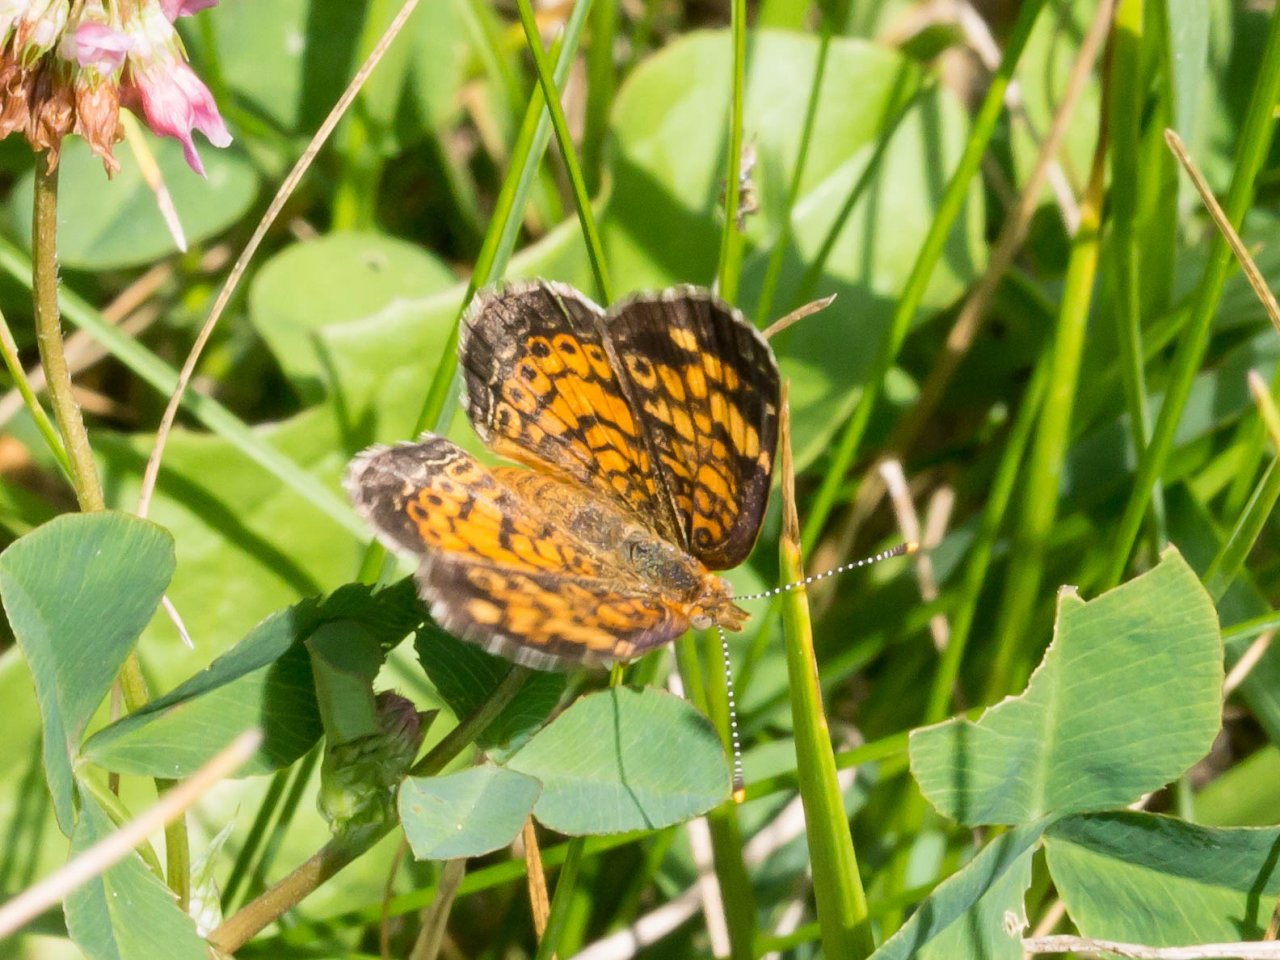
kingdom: Animalia
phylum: Arthropoda
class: Insecta
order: Lepidoptera
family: Nymphalidae
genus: Phyciodes
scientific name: Phyciodes tharos
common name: Pearl Crescent
